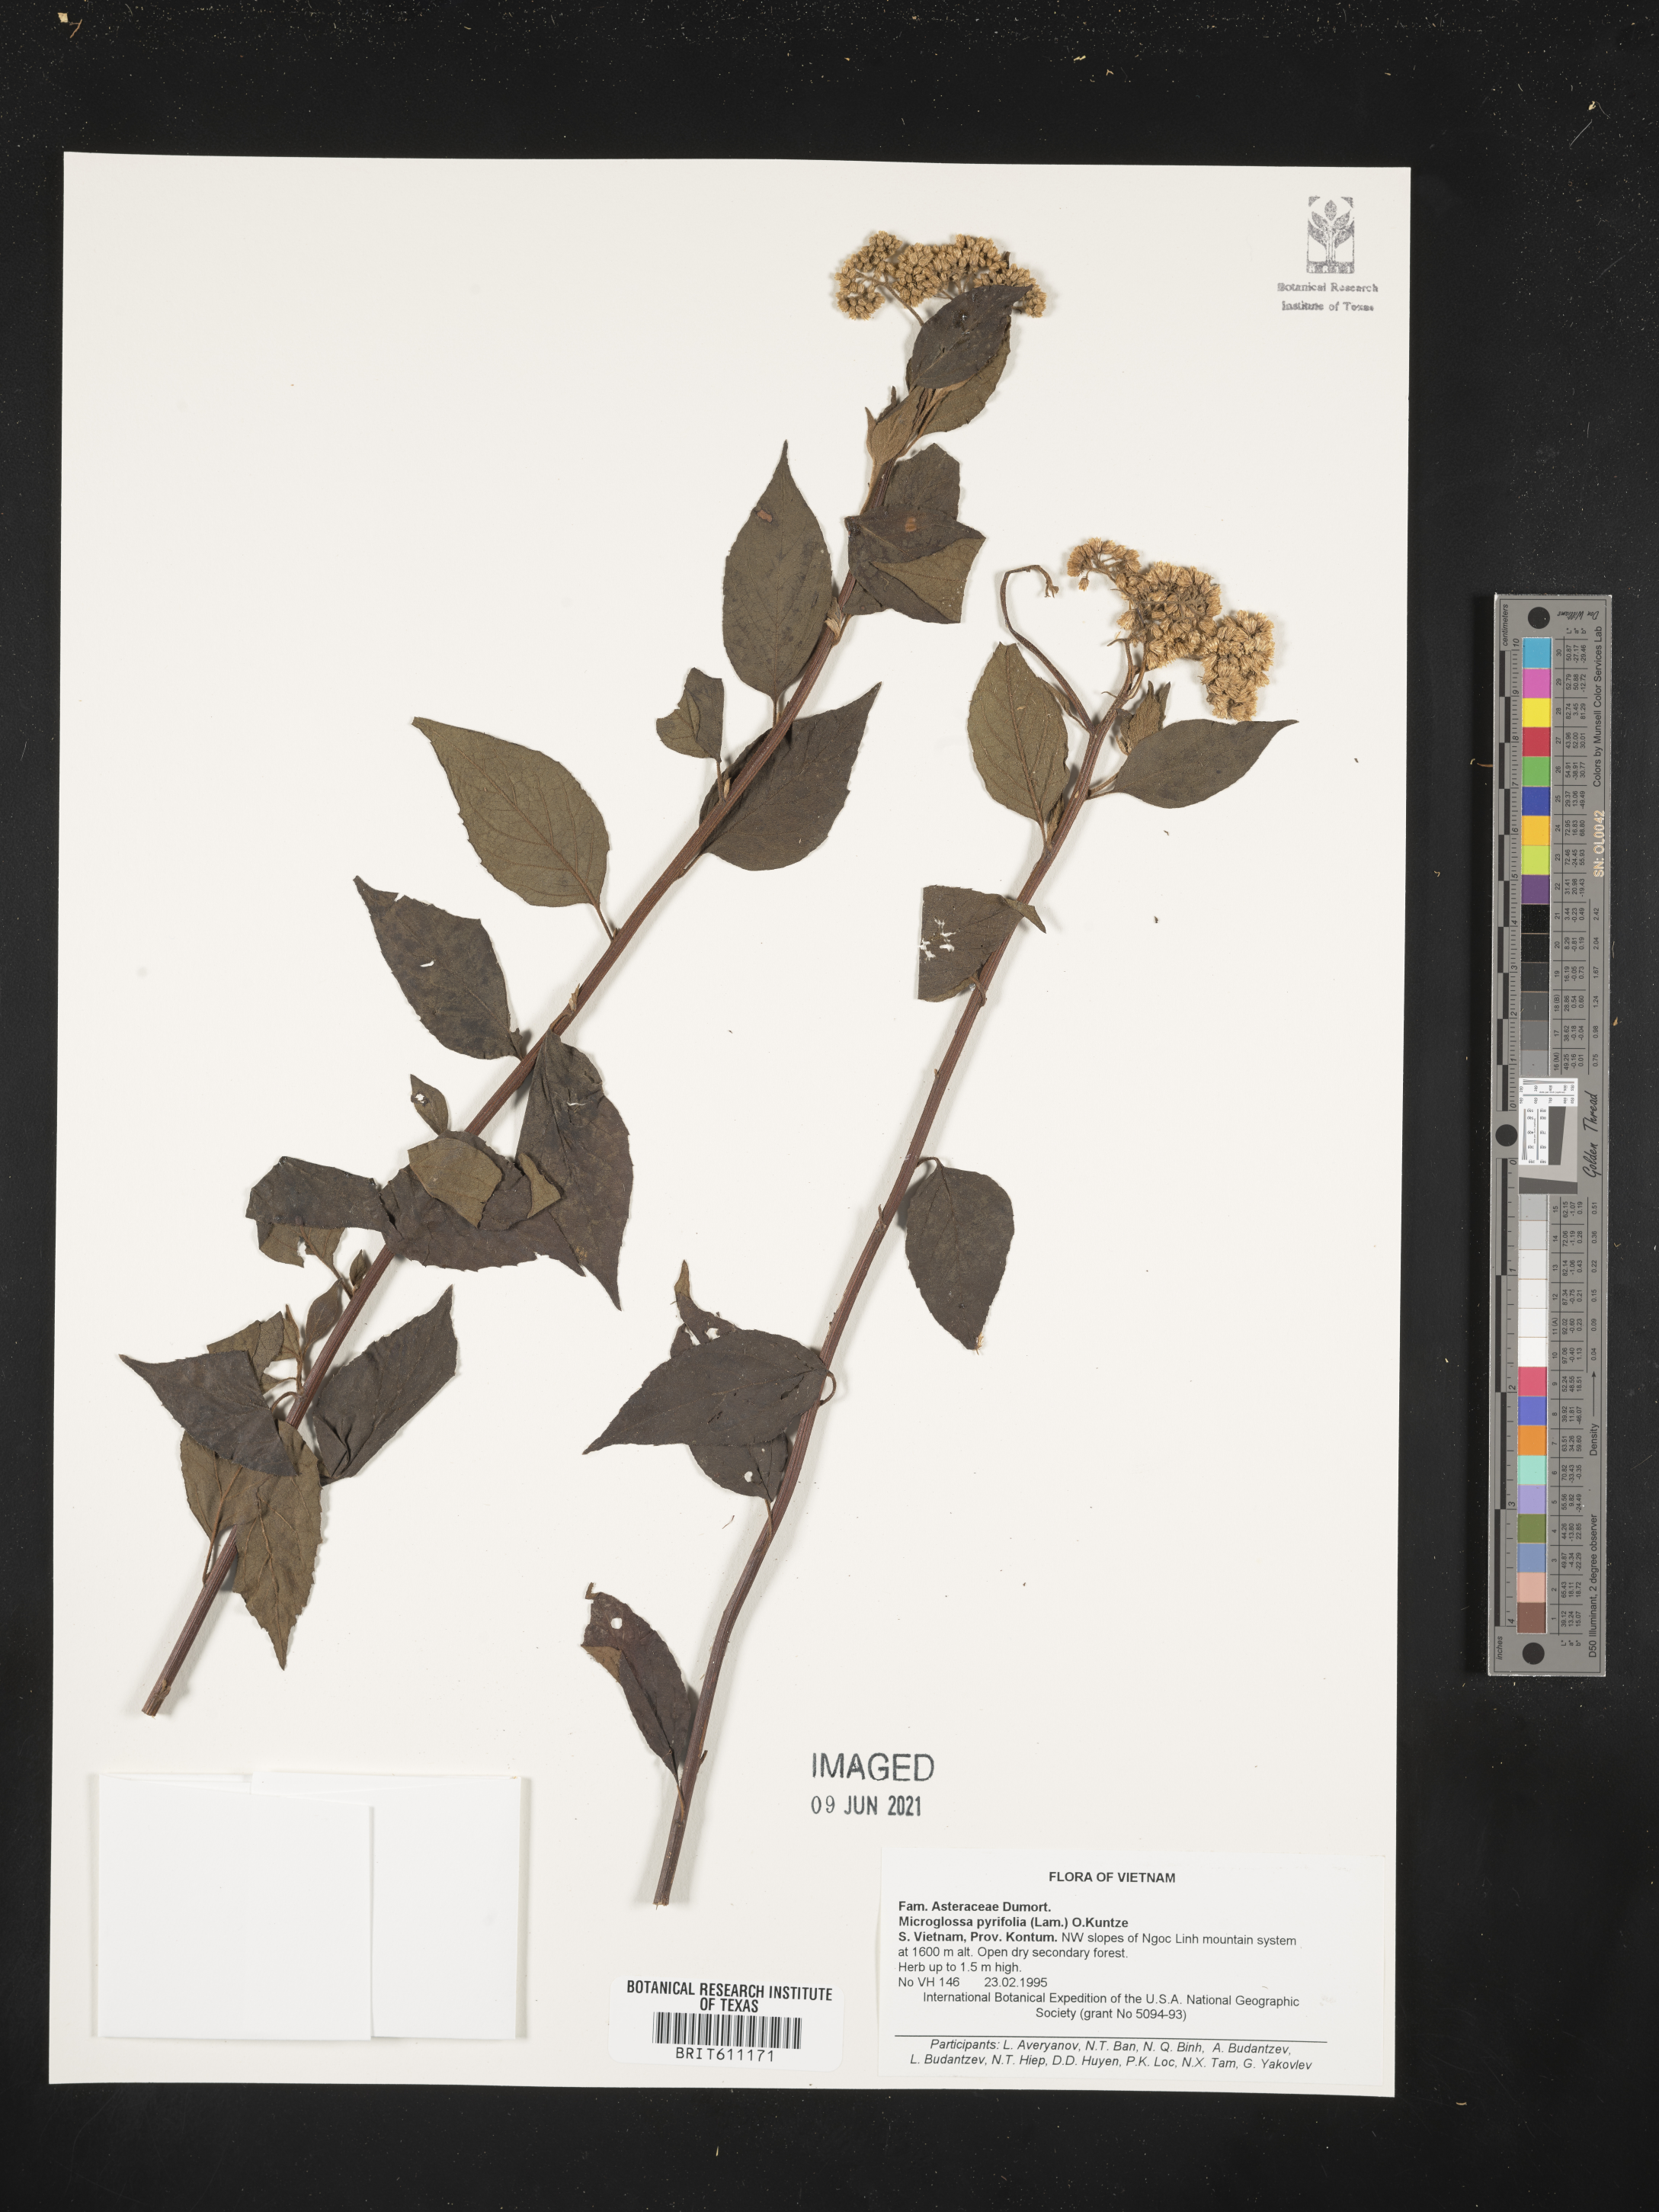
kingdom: Plantae
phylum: Tracheophyta
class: Magnoliopsida
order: Asterales
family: Asteraceae
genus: Microglossa
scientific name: Microglossa pyrifolia
